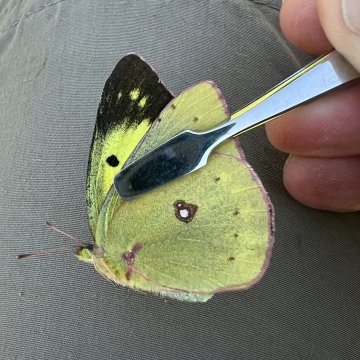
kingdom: Animalia
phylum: Arthropoda
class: Insecta
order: Lepidoptera
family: Pieridae
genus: Colias
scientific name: Colias philodice
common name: Clouded Sulphur
